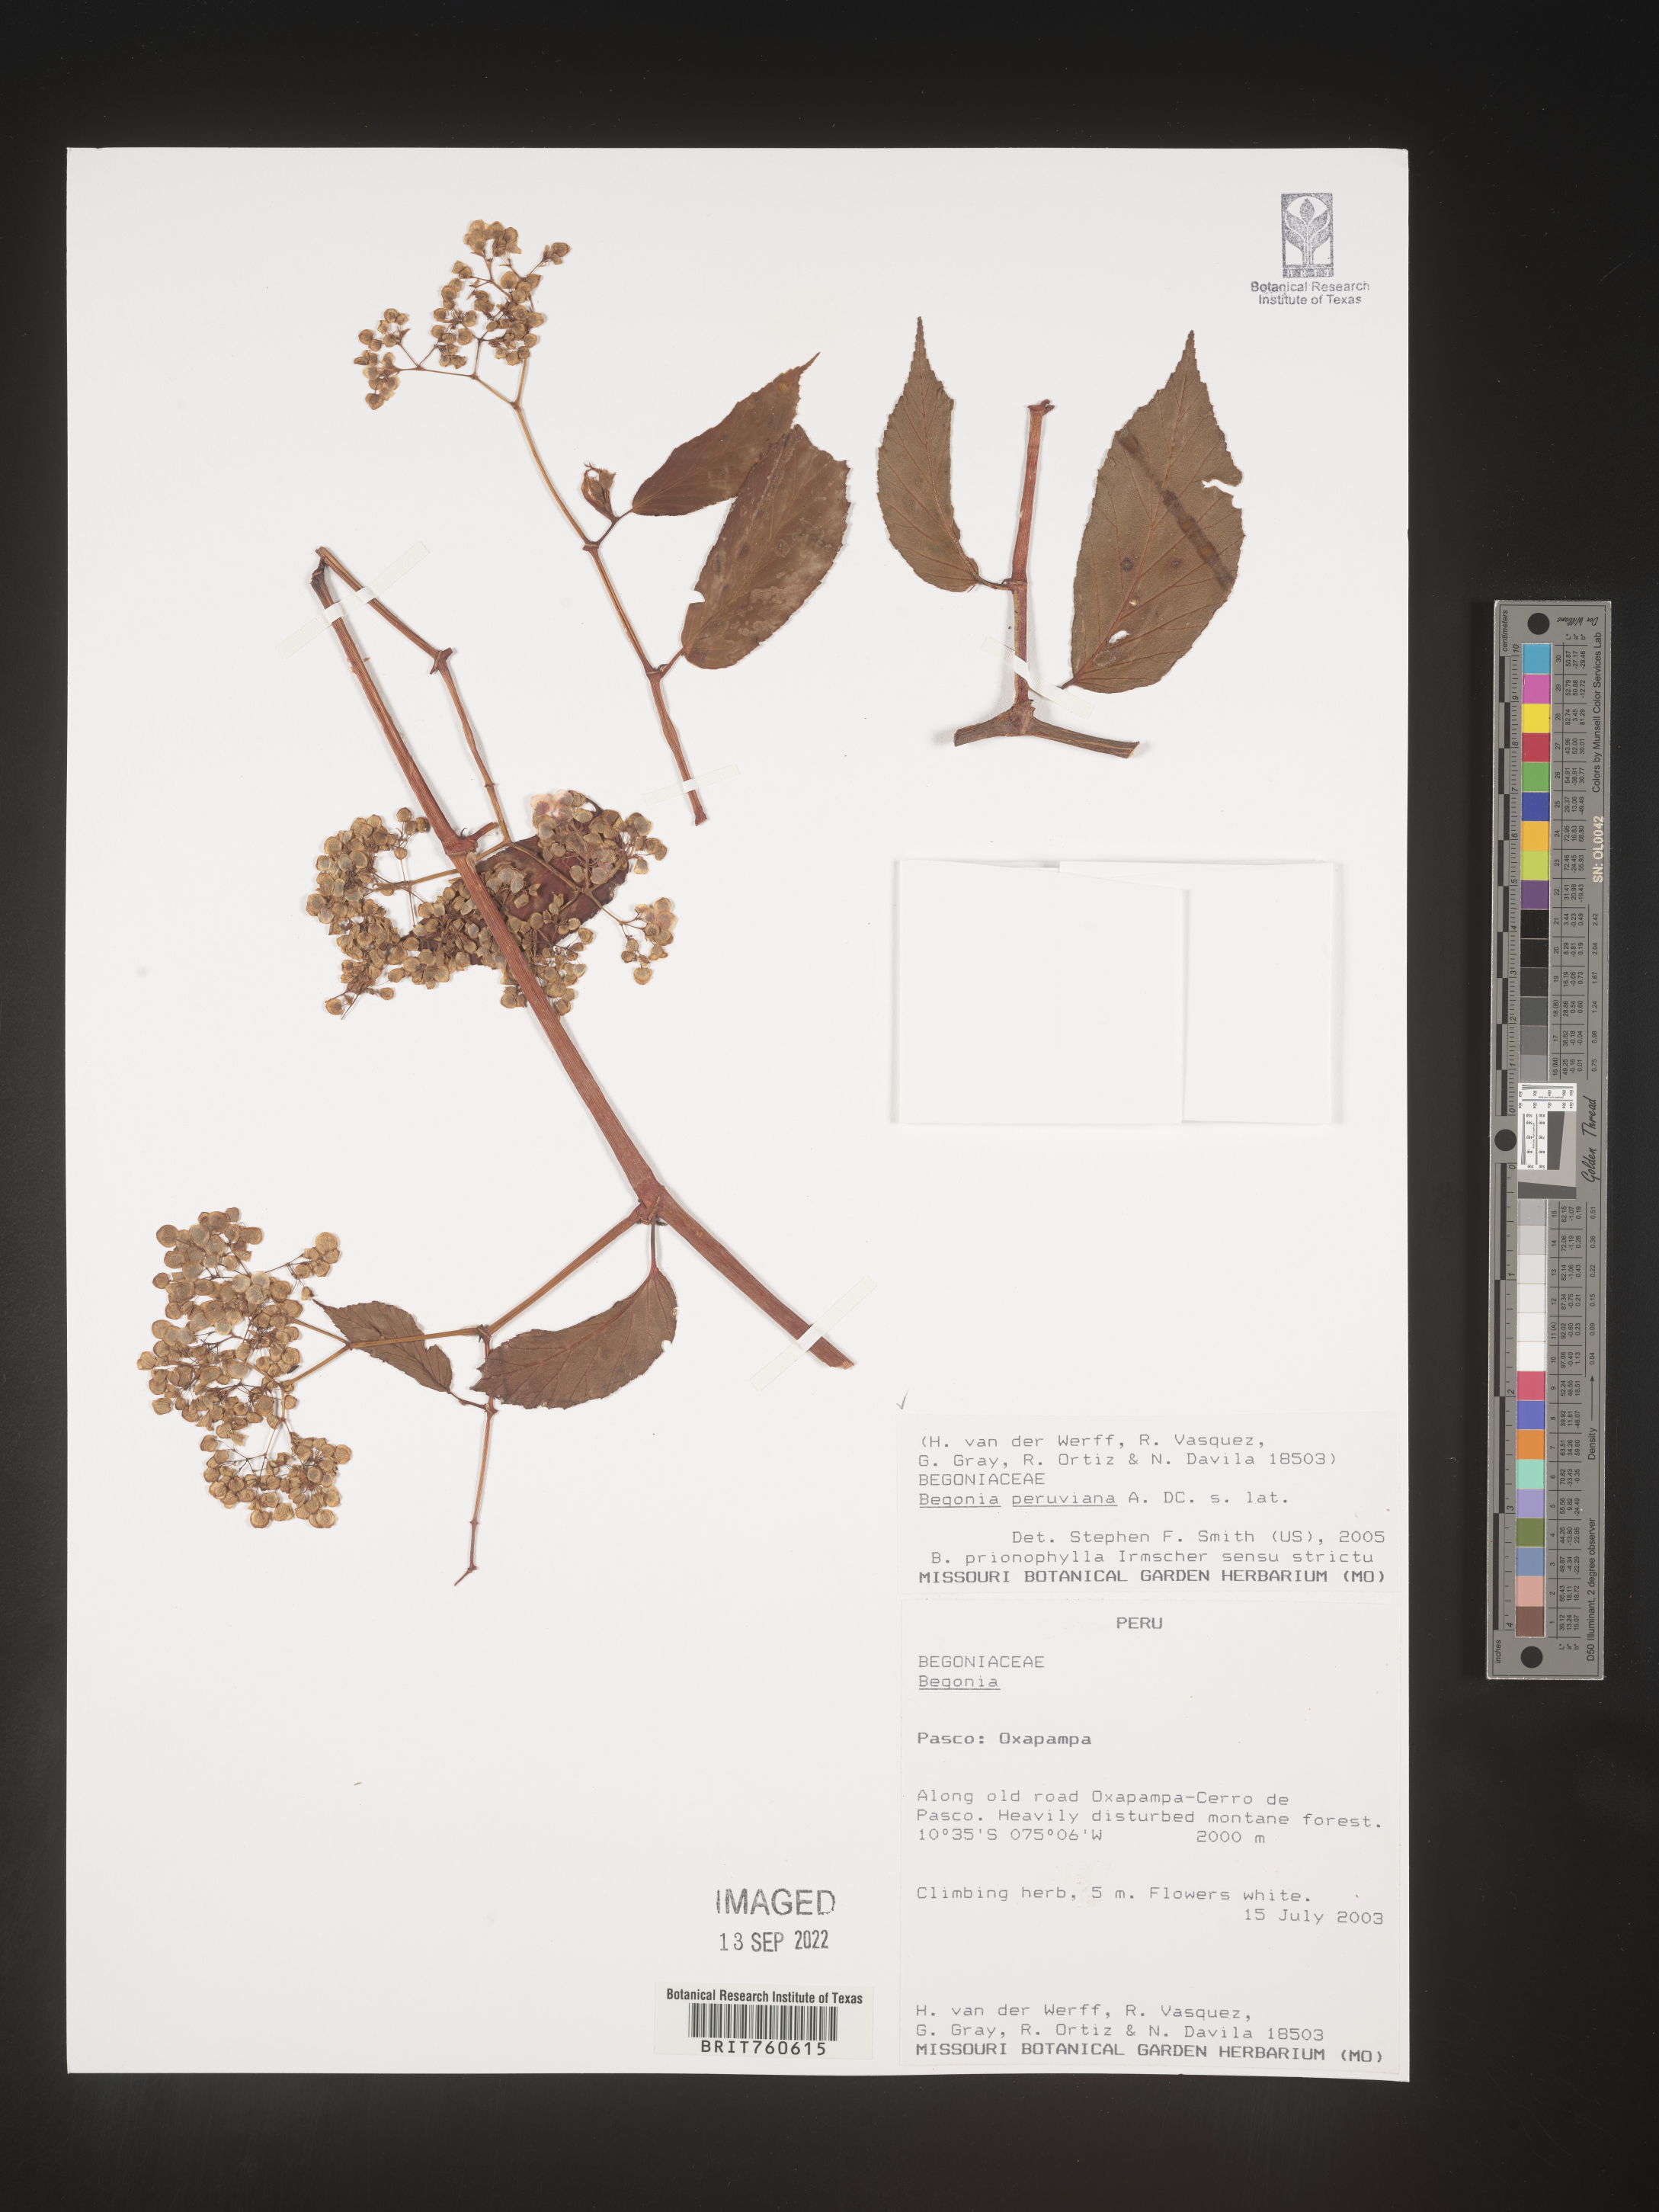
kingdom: Plantae
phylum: Tracheophyta
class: Magnoliopsida
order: Cucurbitales
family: Begoniaceae
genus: Begonia
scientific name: Begonia
